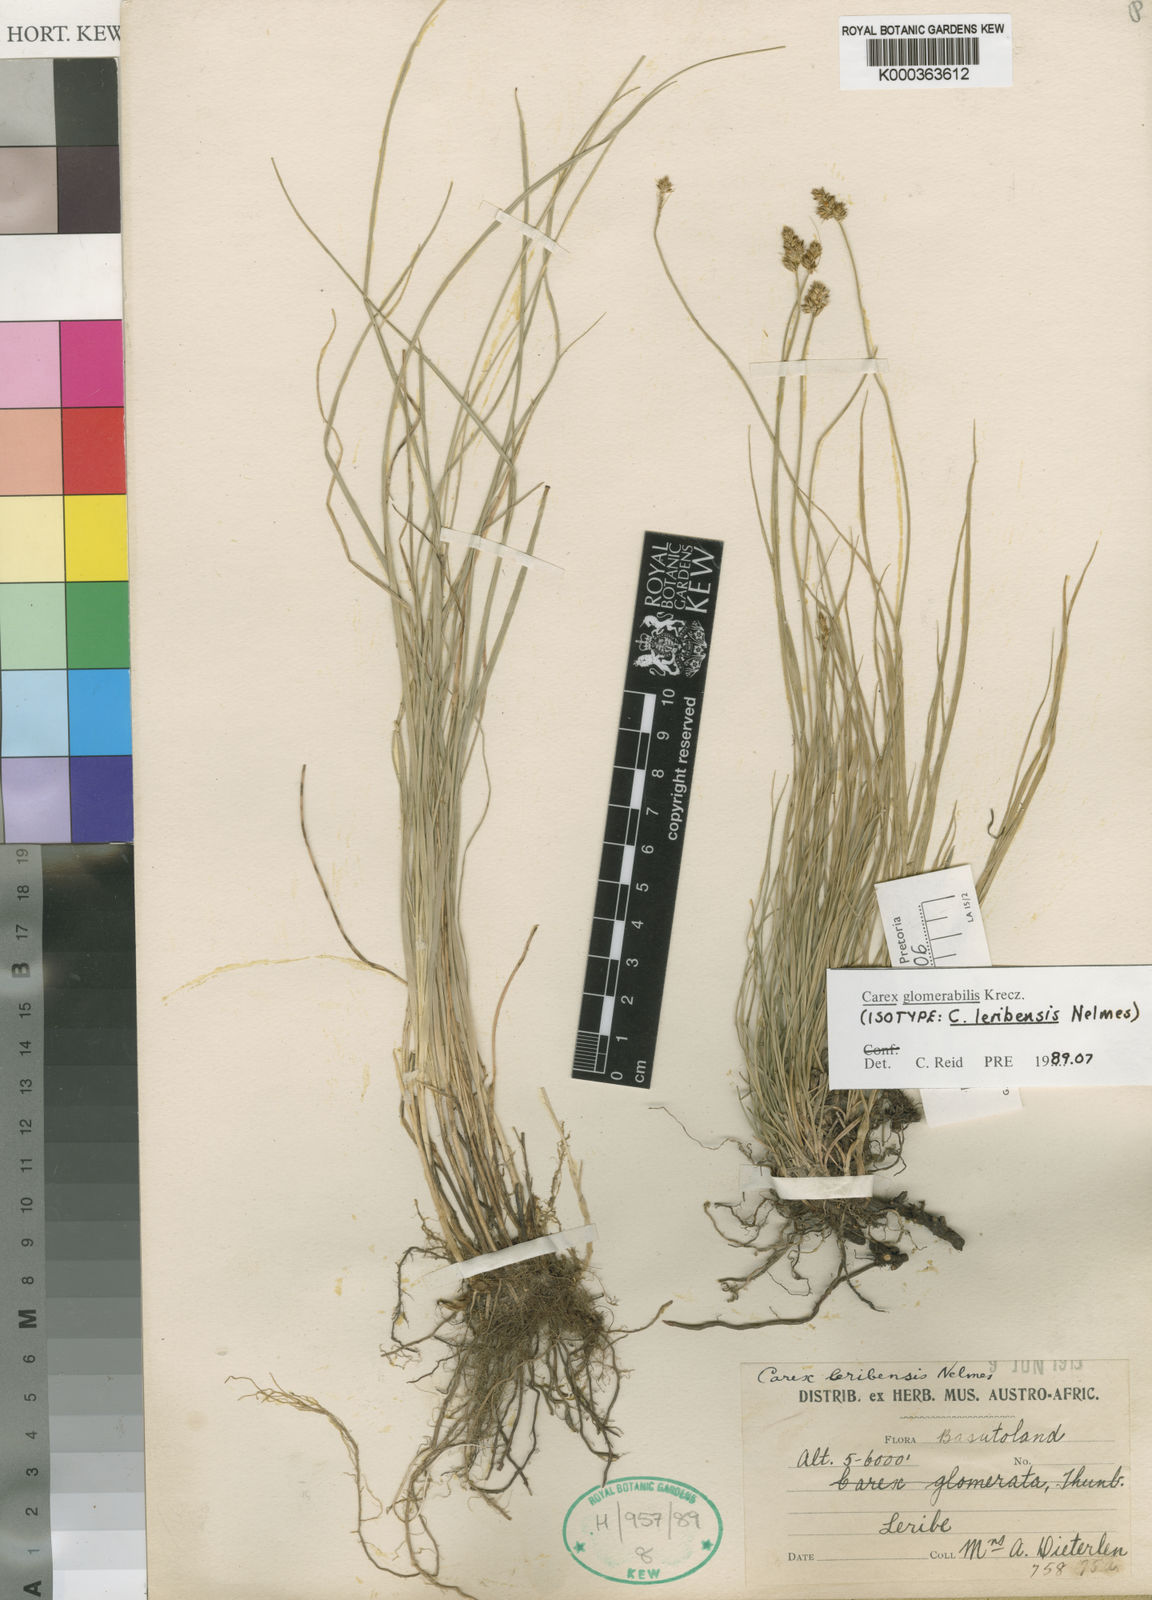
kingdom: Plantae
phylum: Tracheophyta
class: Liliopsida
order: Poales
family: Cyperaceae
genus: Carex
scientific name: Carex glomerata
